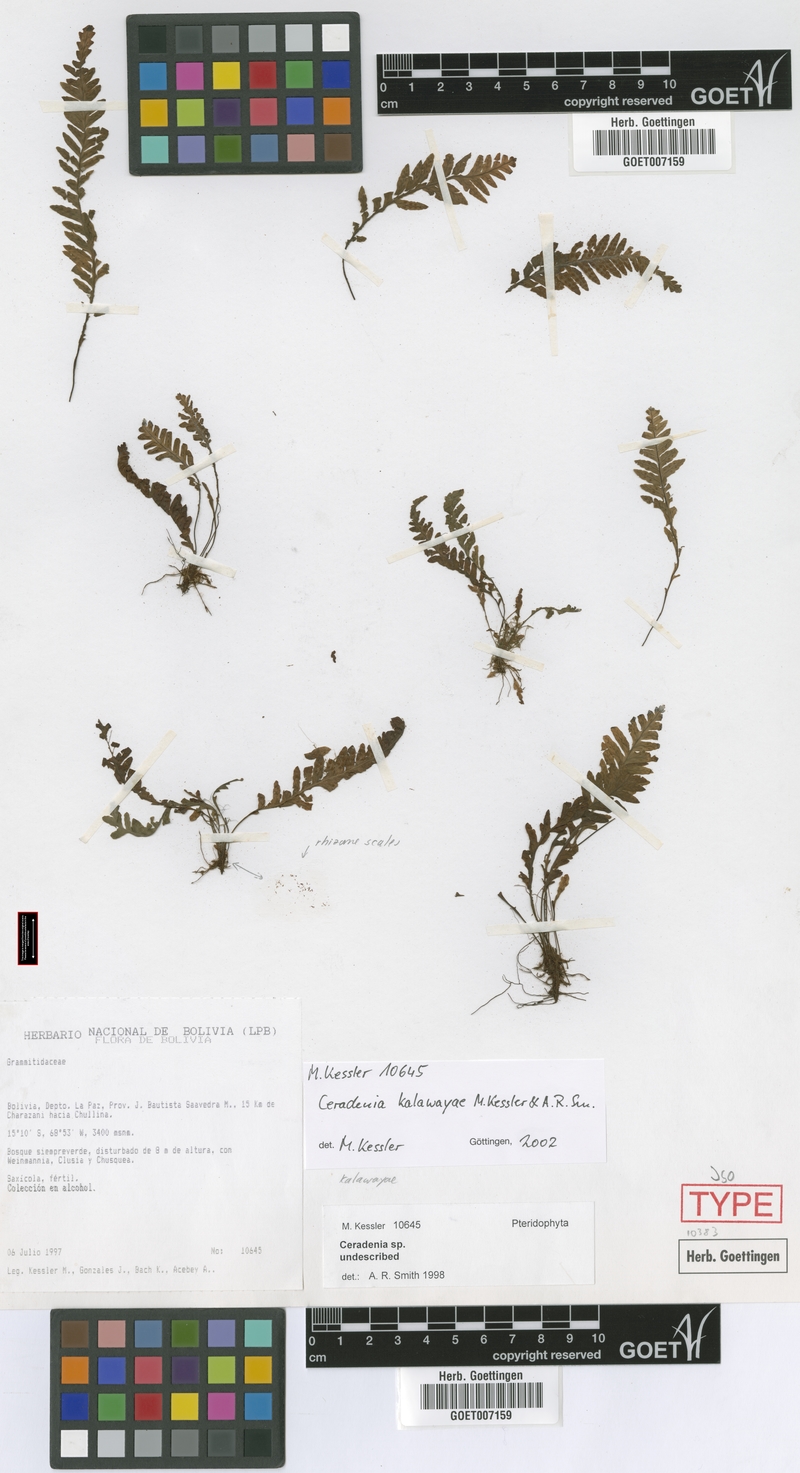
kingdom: Plantae
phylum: Tracheophyta
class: Polypodiopsida
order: Polypodiales
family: Polypodiaceae
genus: Ceradenia
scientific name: Ceradenia kalawayae
